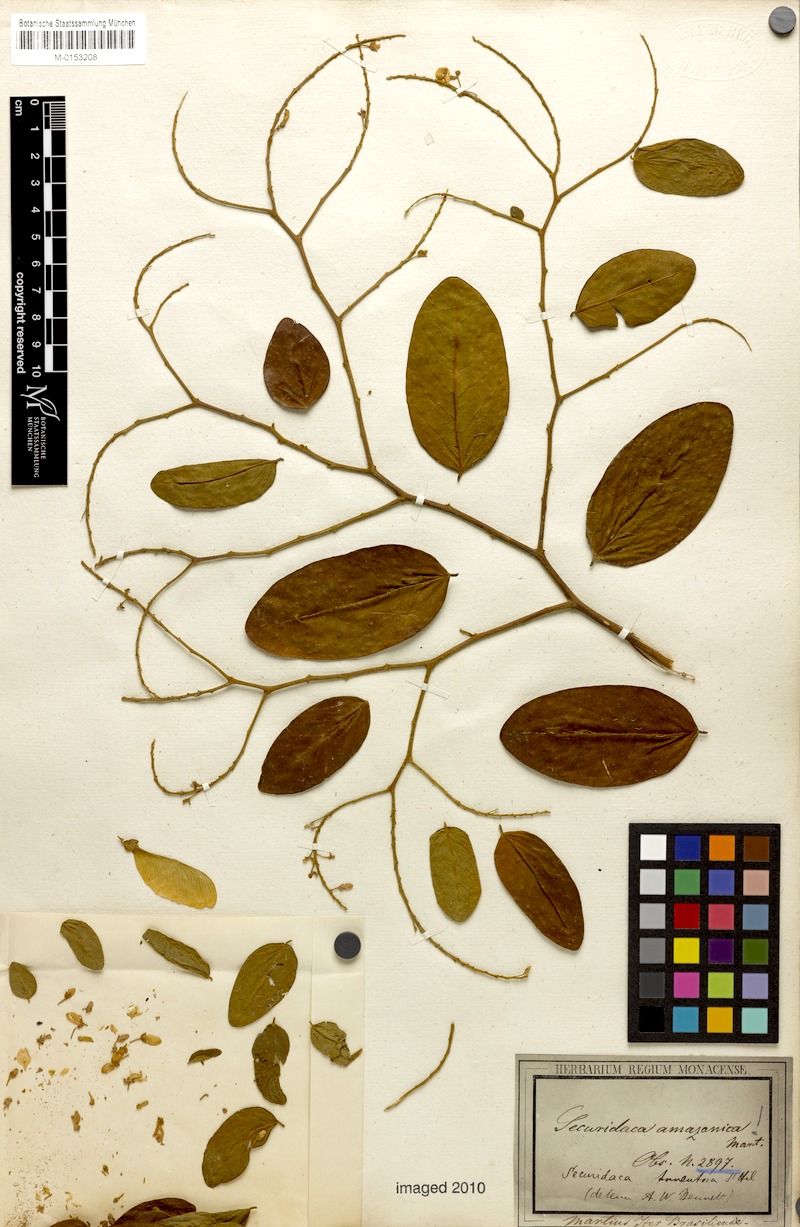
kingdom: Plantae
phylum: Tracheophyta
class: Magnoliopsida
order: Fabales
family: Polygalaceae
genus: Securidaca
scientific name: Securidaca tomentosa
